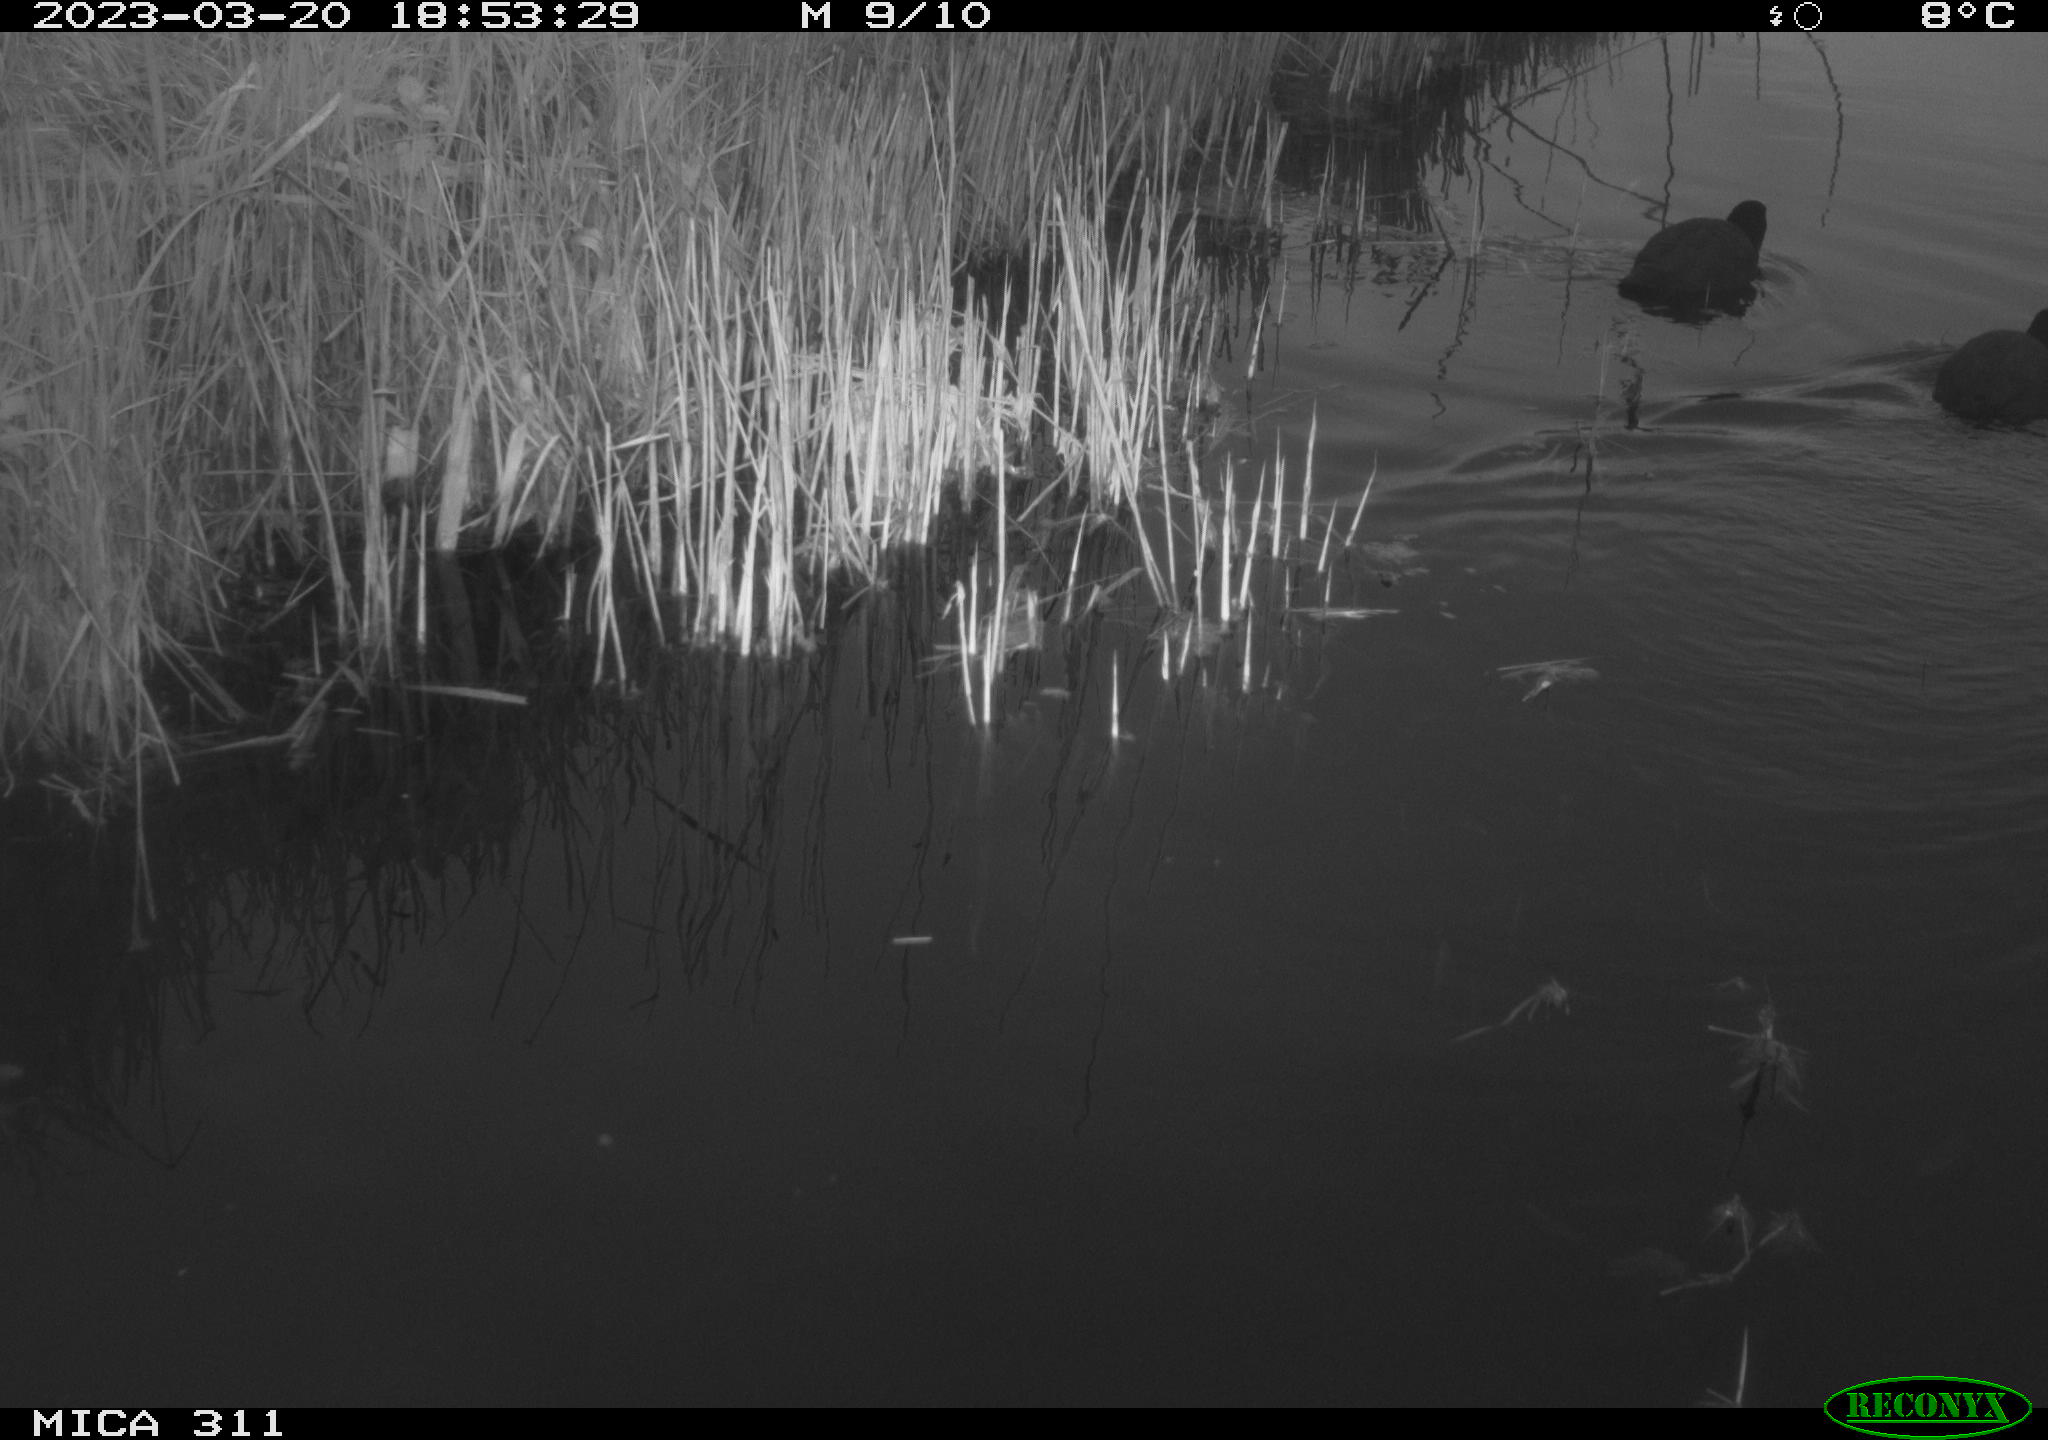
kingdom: Animalia
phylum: Chordata
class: Aves
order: Gruiformes
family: Rallidae
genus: Fulica
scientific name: Fulica atra
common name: Eurasian coot
